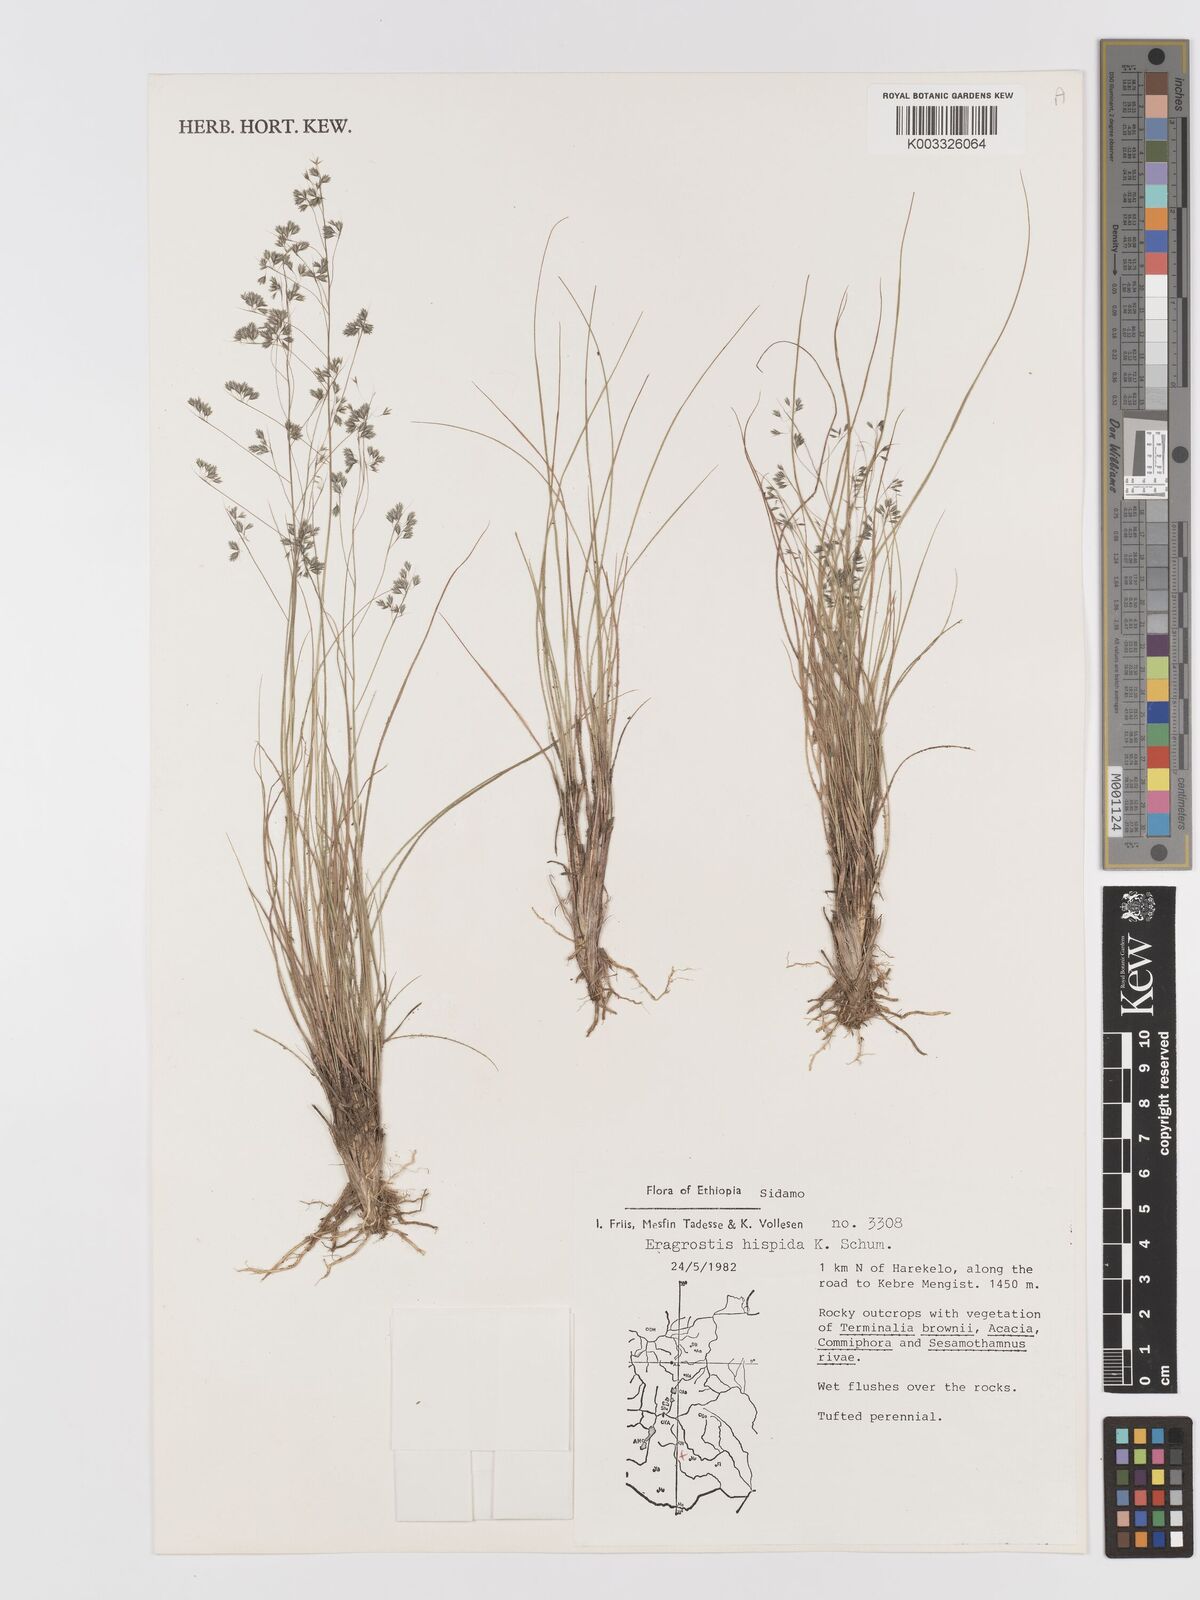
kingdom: Plantae
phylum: Tracheophyta
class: Liliopsida
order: Poales
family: Poaceae
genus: Eragrostis
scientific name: Eragrostis hispida
